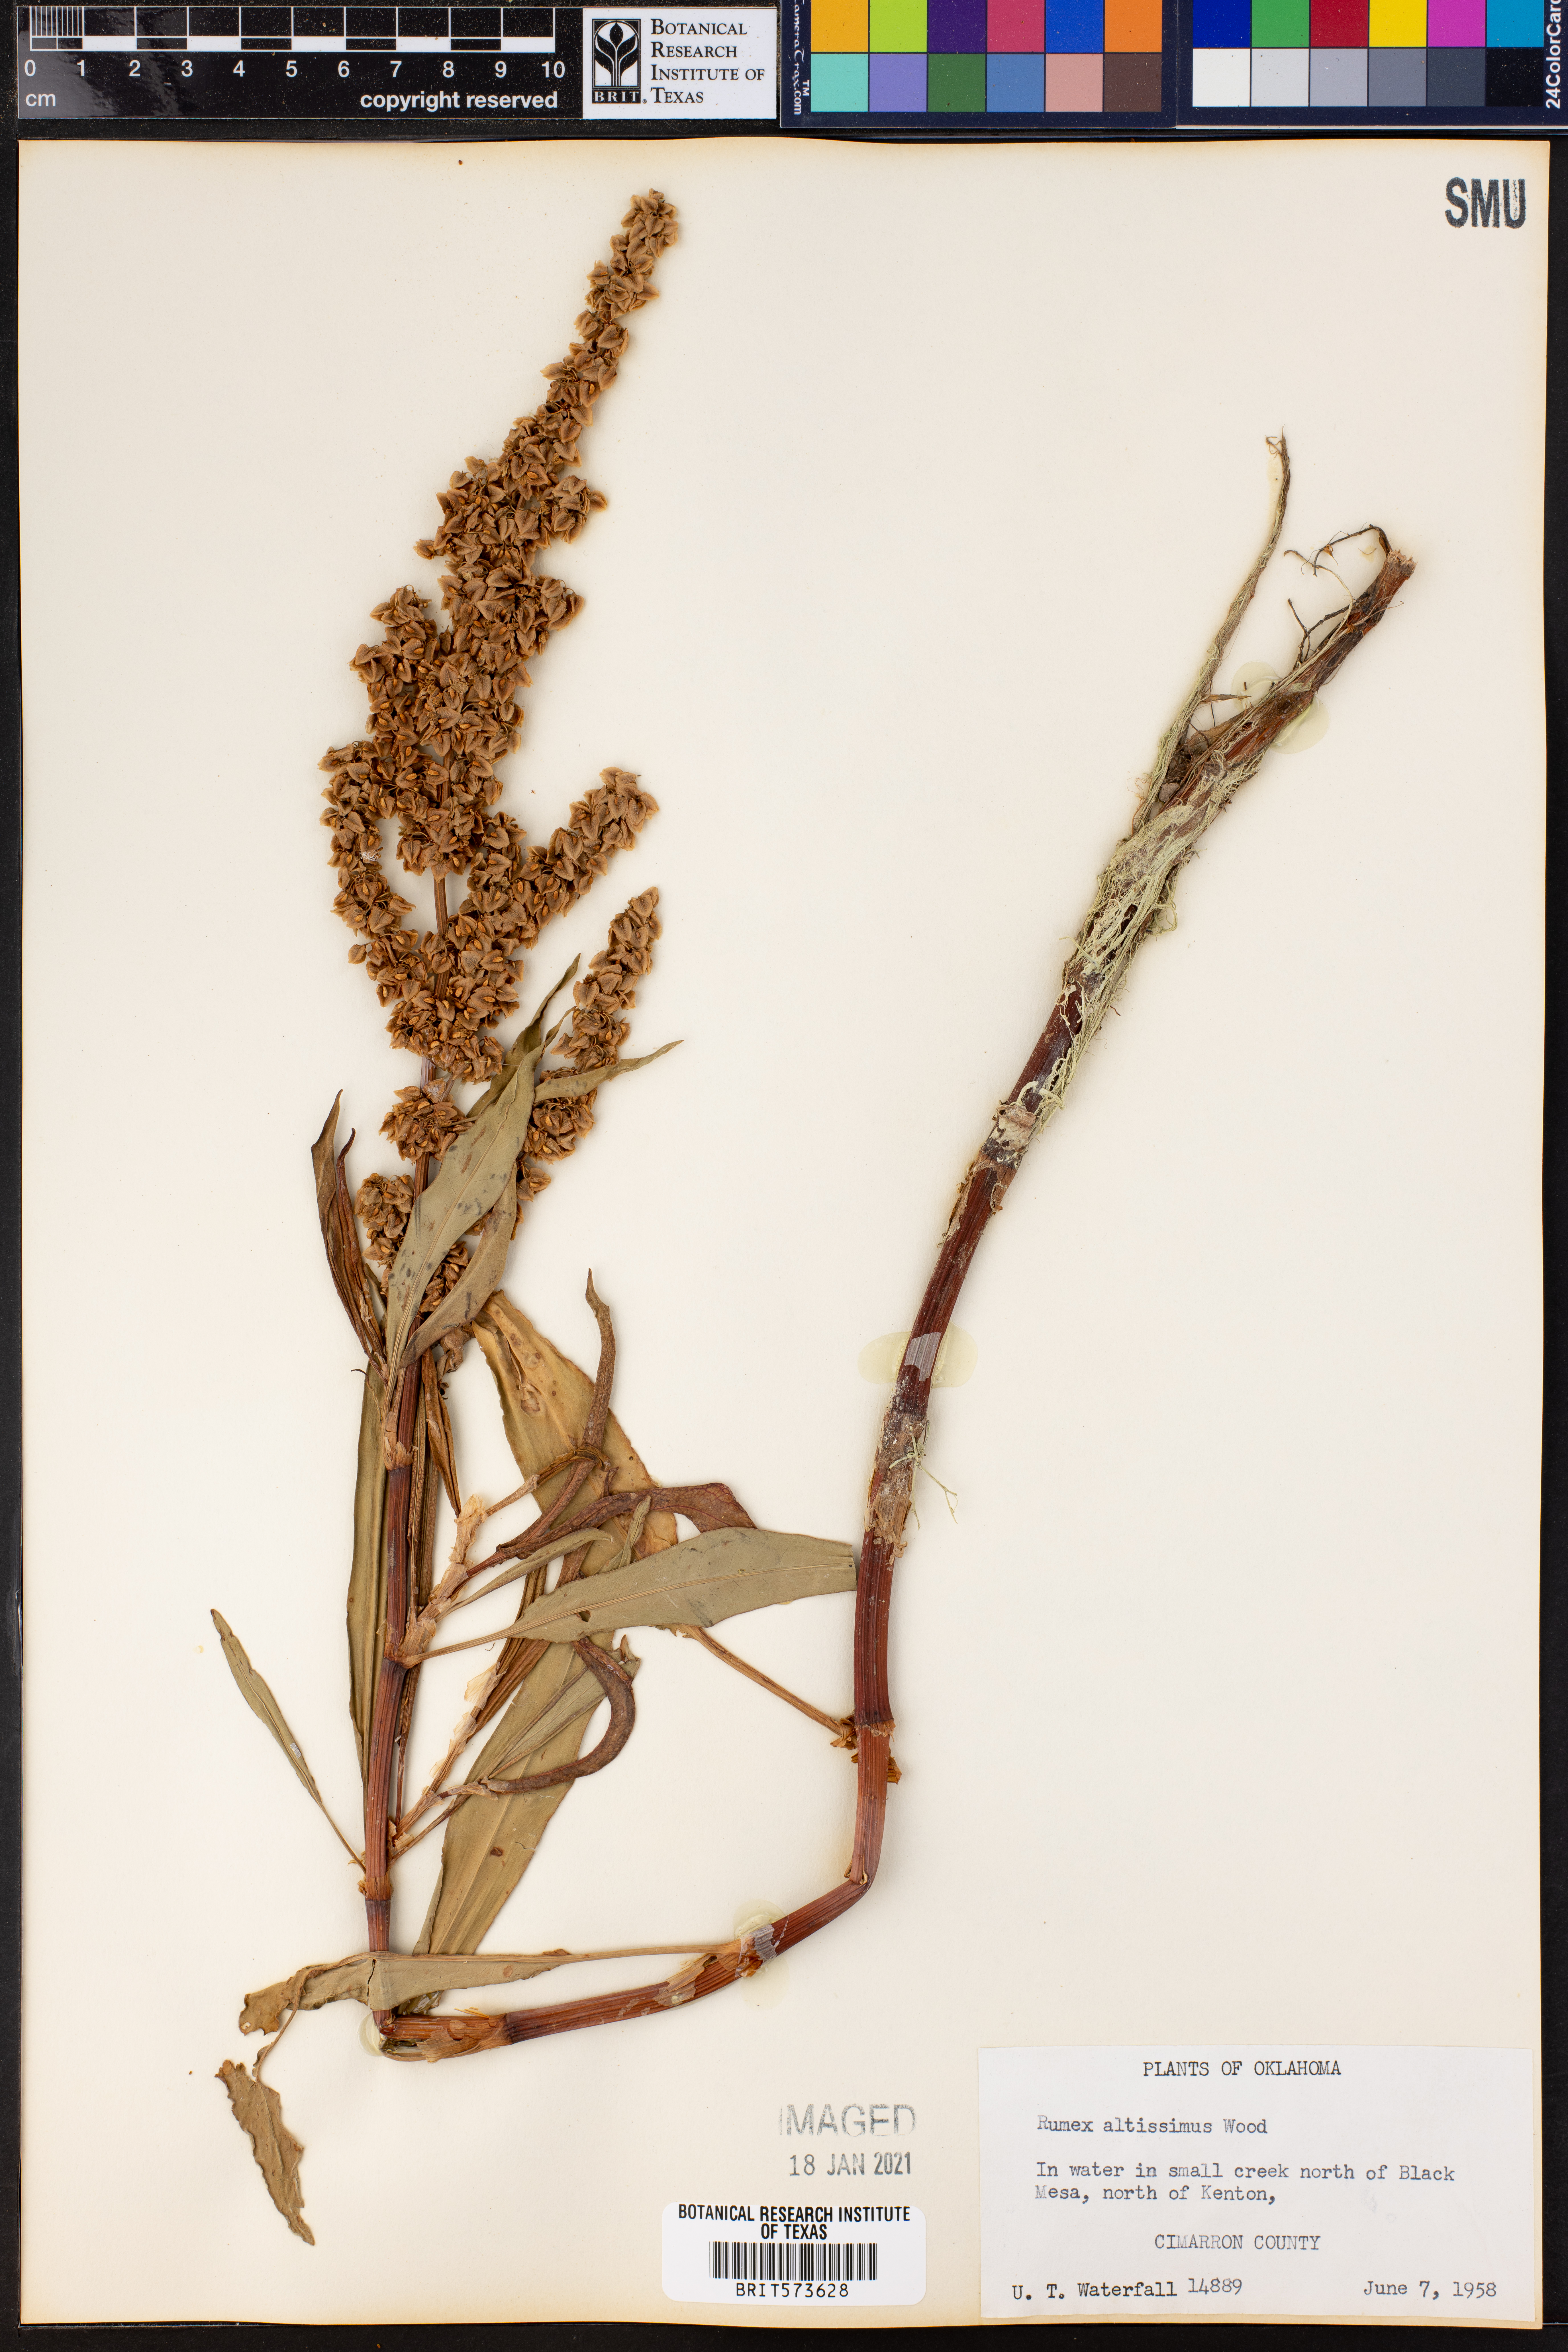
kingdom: Plantae
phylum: Tracheophyta
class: Magnoliopsida
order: Caryophyllales
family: Polygonaceae
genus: Rumex
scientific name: Rumex altissimus
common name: Smooth dock
